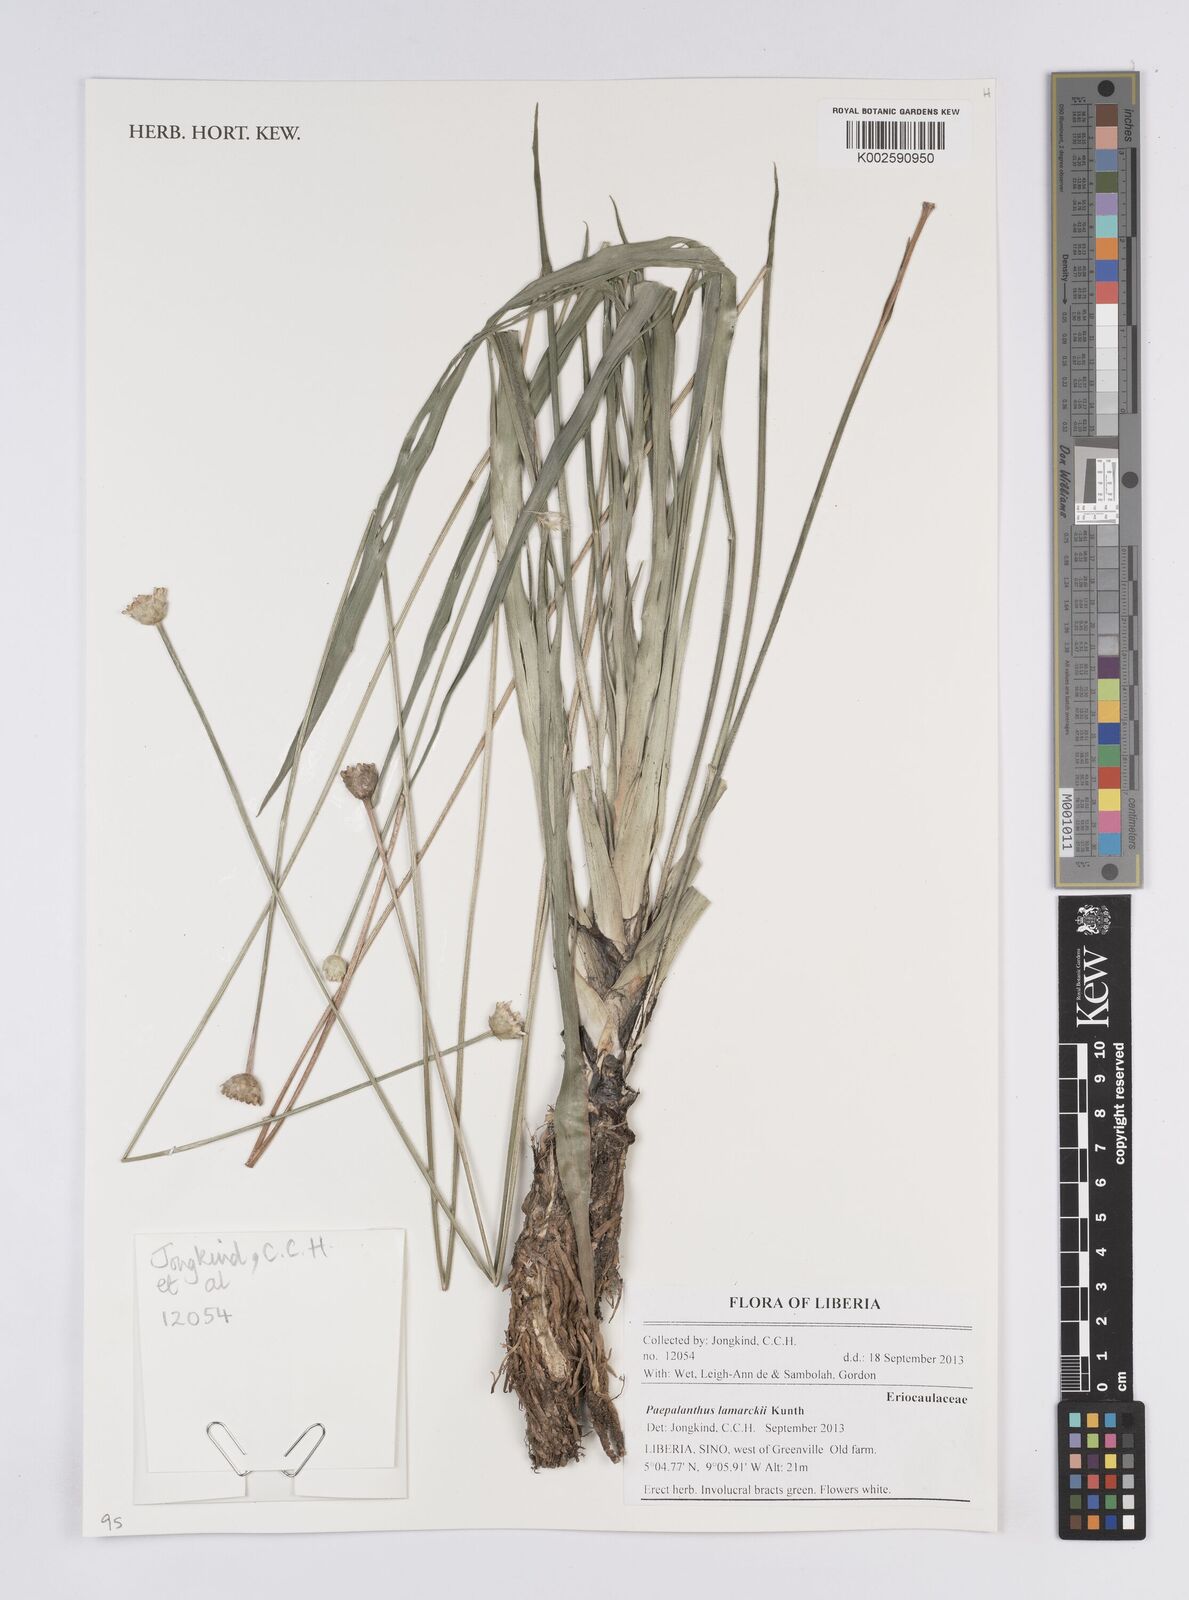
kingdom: Plantae
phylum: Tracheophyta
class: Liliopsida
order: Poales
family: Eriocaulaceae
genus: Paepalanthus
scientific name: Paepalanthus lamarckii
